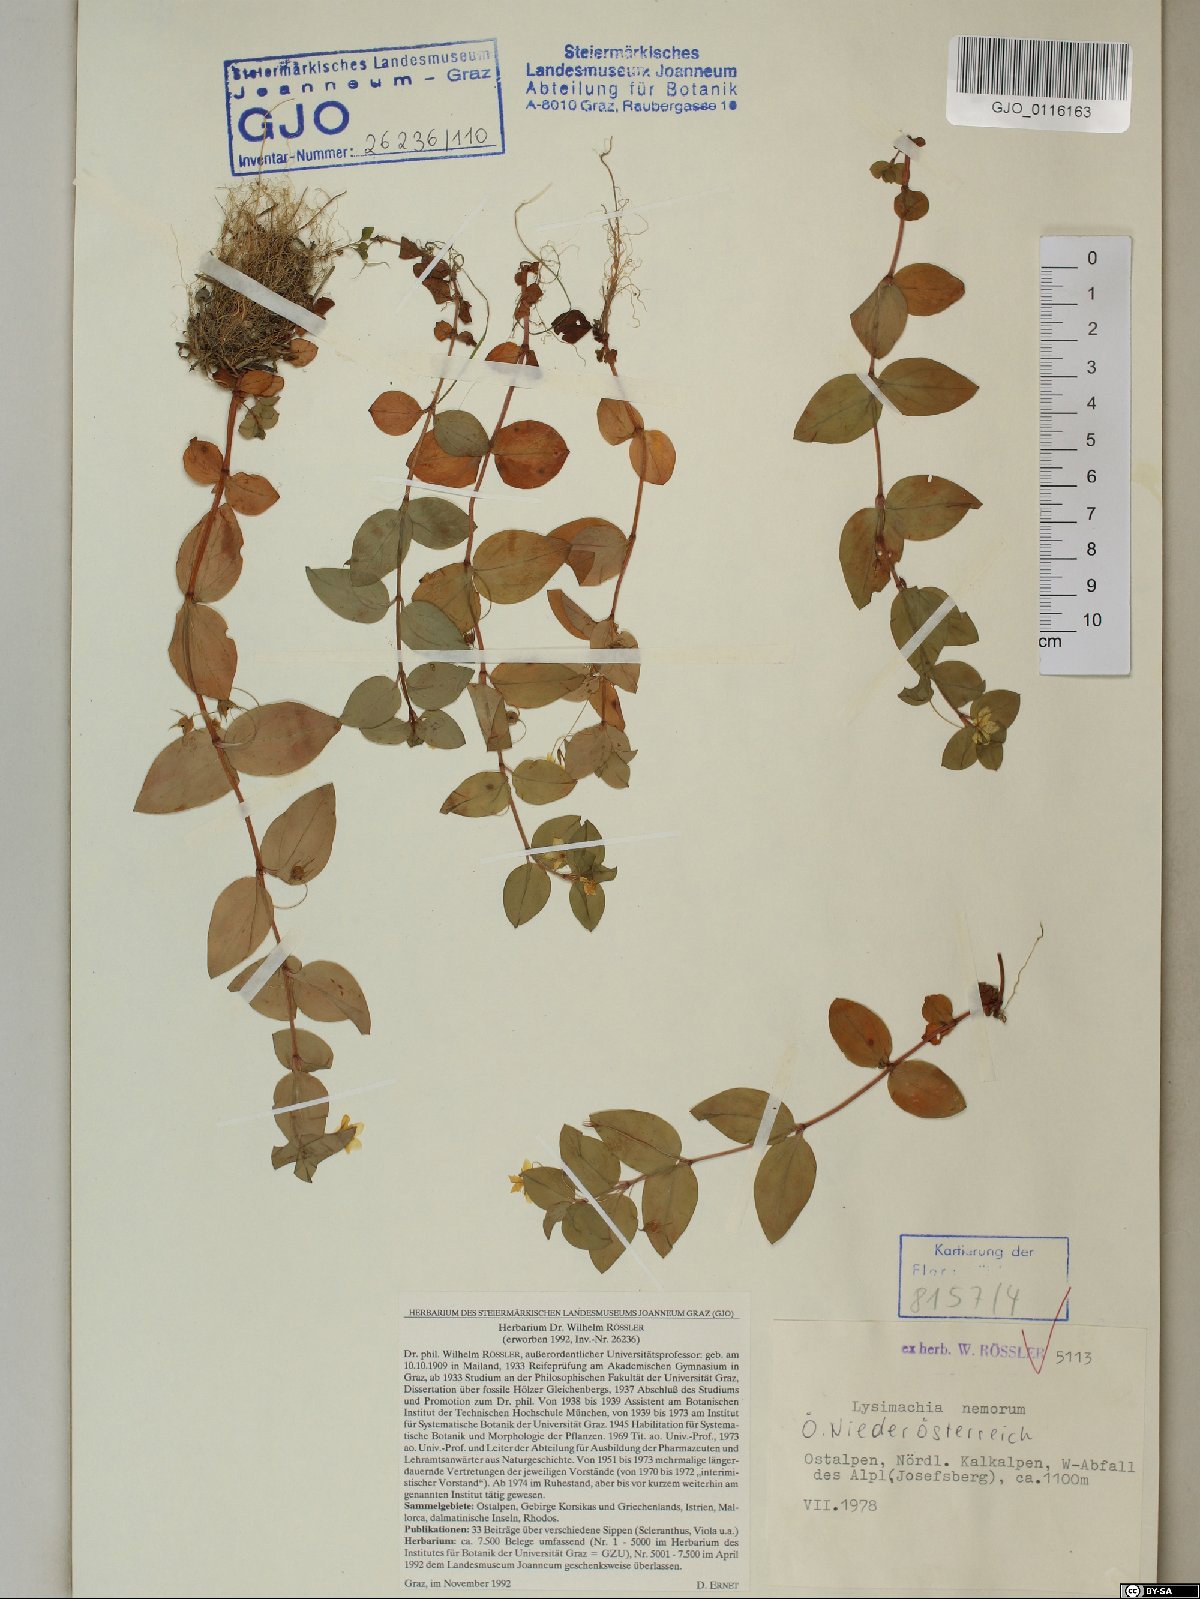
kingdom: Plantae
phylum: Tracheophyta
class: Magnoliopsida
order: Ericales
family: Primulaceae
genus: Lysimachia
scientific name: Lysimachia nemorum
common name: Yellow pimpernel
